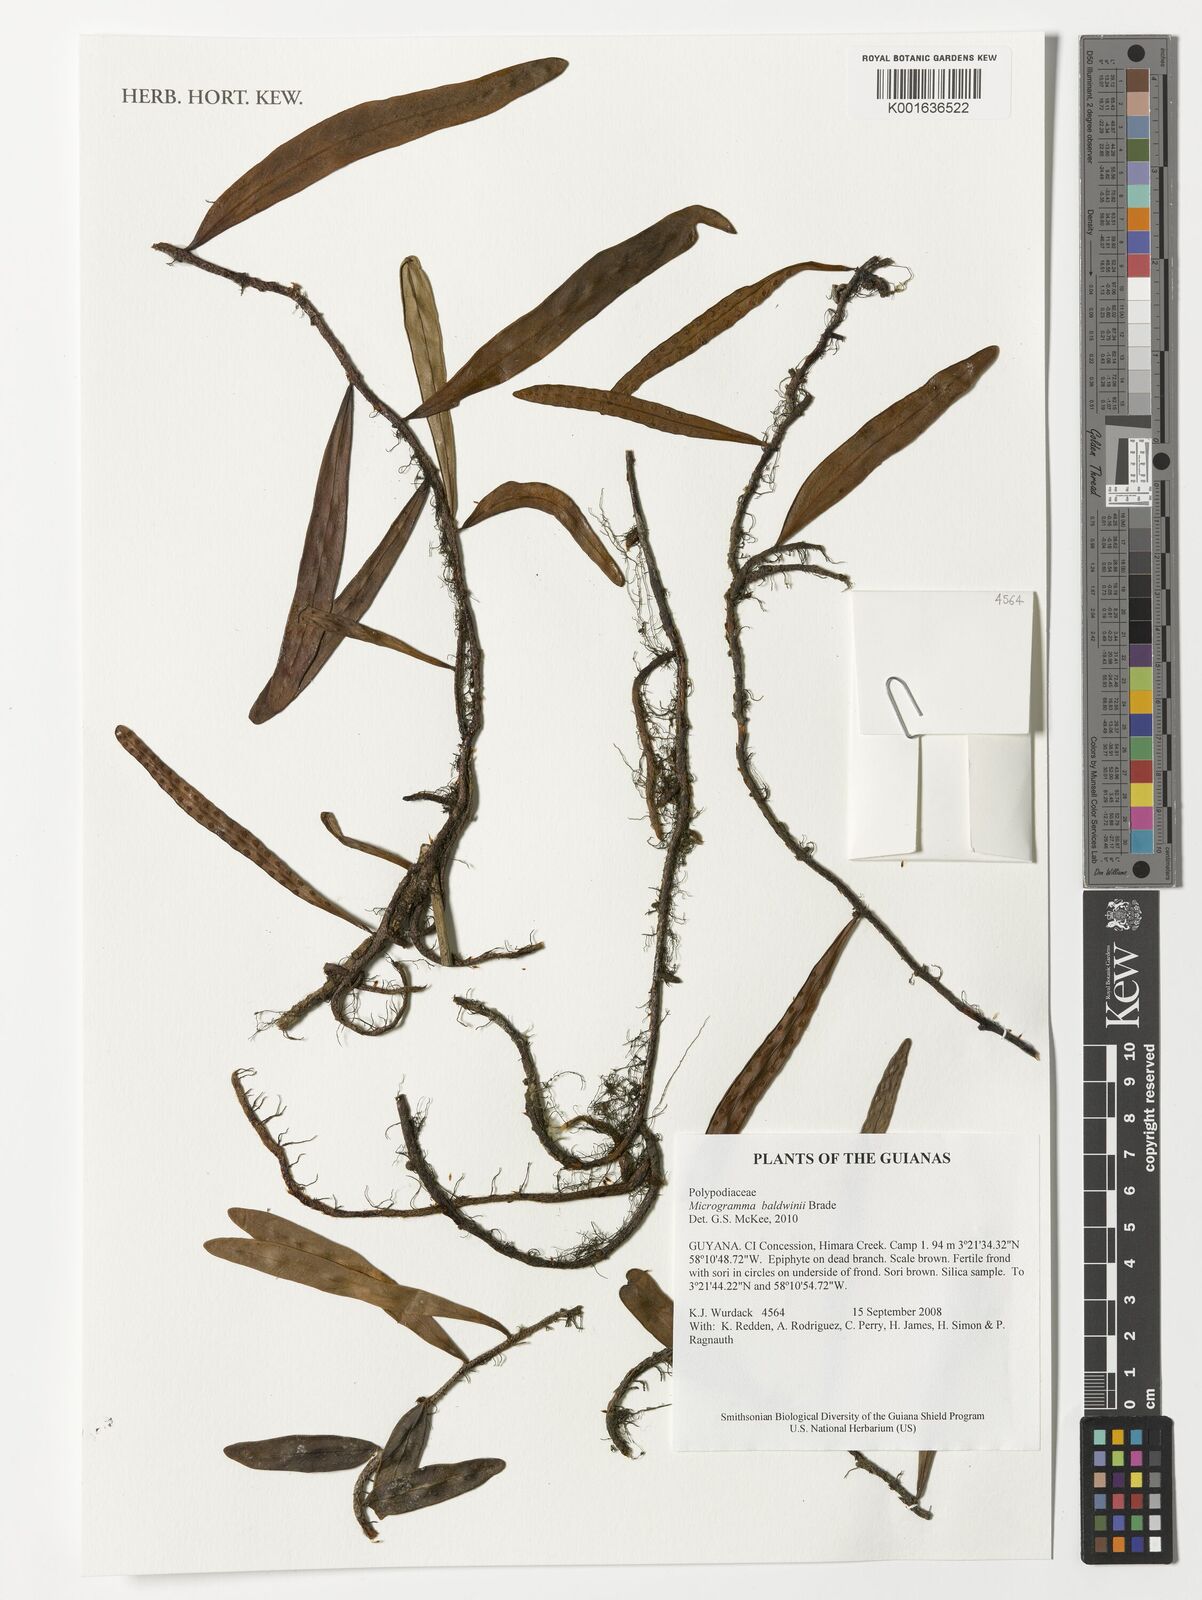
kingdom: Plantae
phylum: Tracheophyta
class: Polypodiopsida
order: Polypodiales
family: Polypodiaceae
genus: Microgramma
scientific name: Microgramma baldwinii
